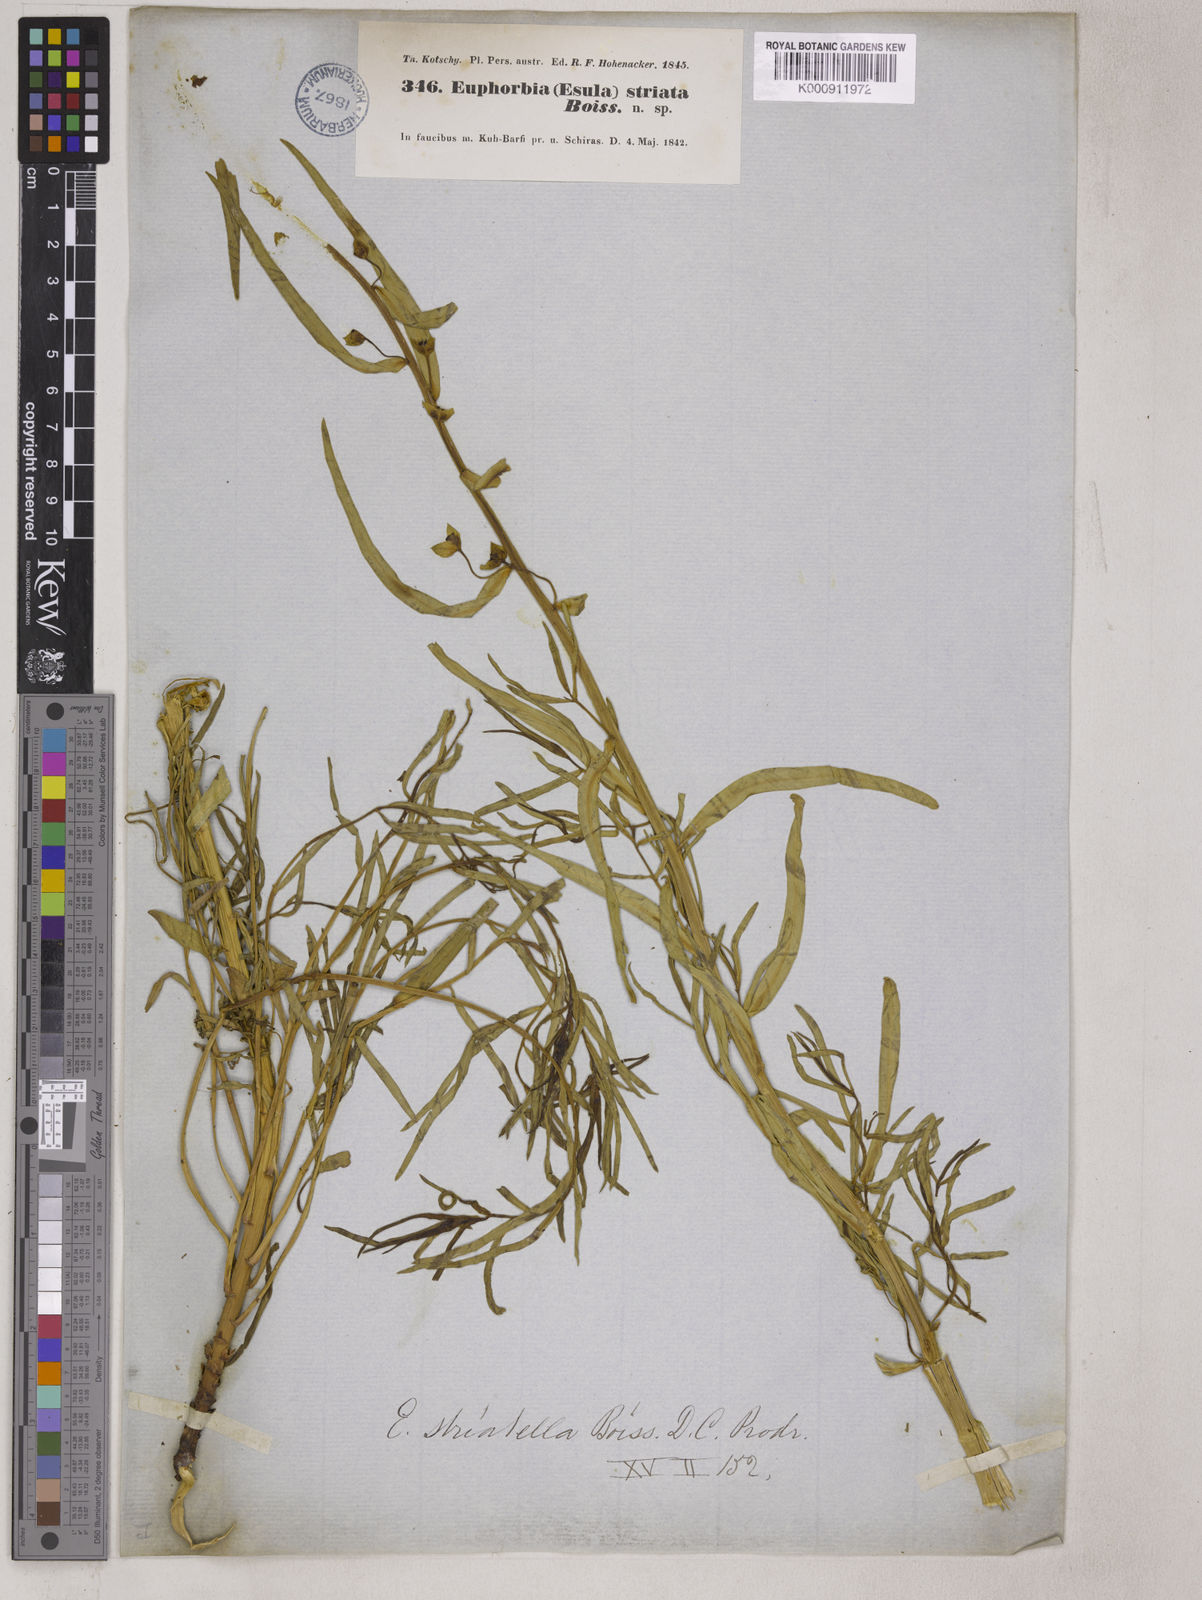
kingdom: Plantae
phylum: Tracheophyta
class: Magnoliopsida
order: Malpighiales
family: Euphorbiaceae
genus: Euphorbia
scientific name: Euphorbia microsciadia
